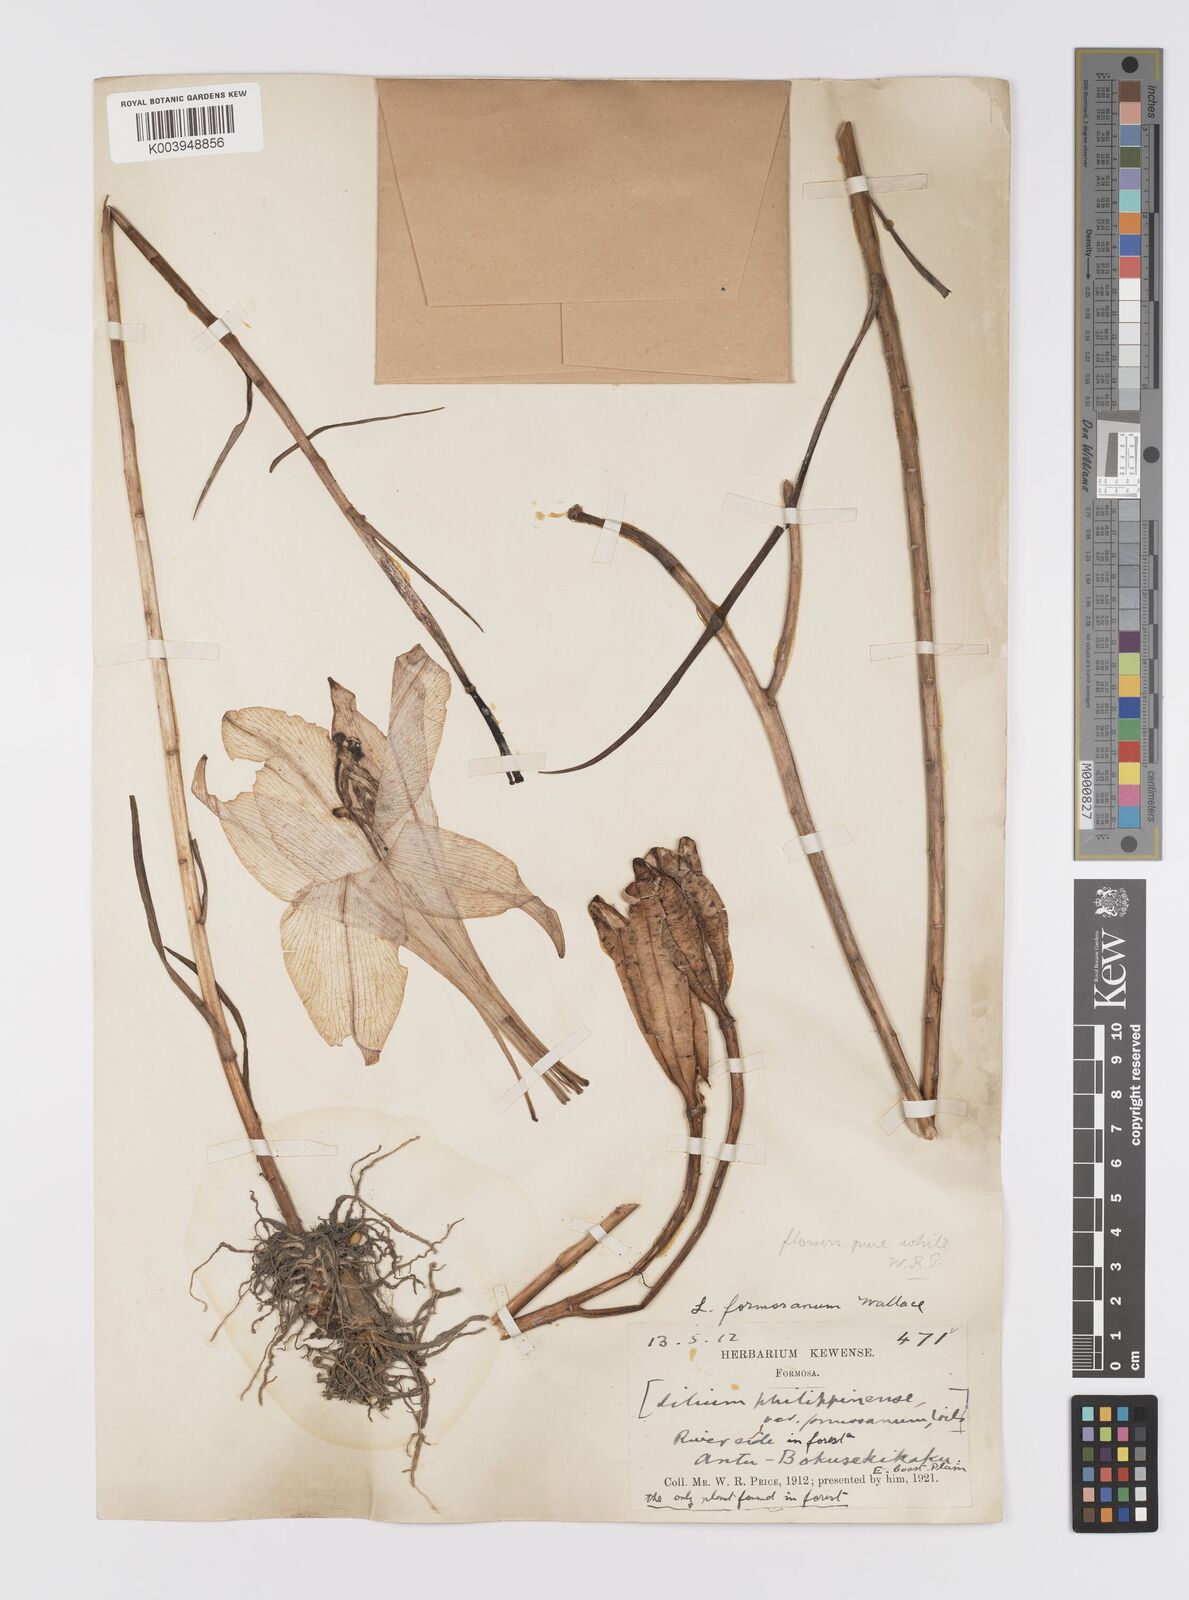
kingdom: Plantae
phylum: Tracheophyta
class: Liliopsida
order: Liliales
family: Liliaceae
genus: Lilium
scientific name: Lilium formosanum
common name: Formosa lily
